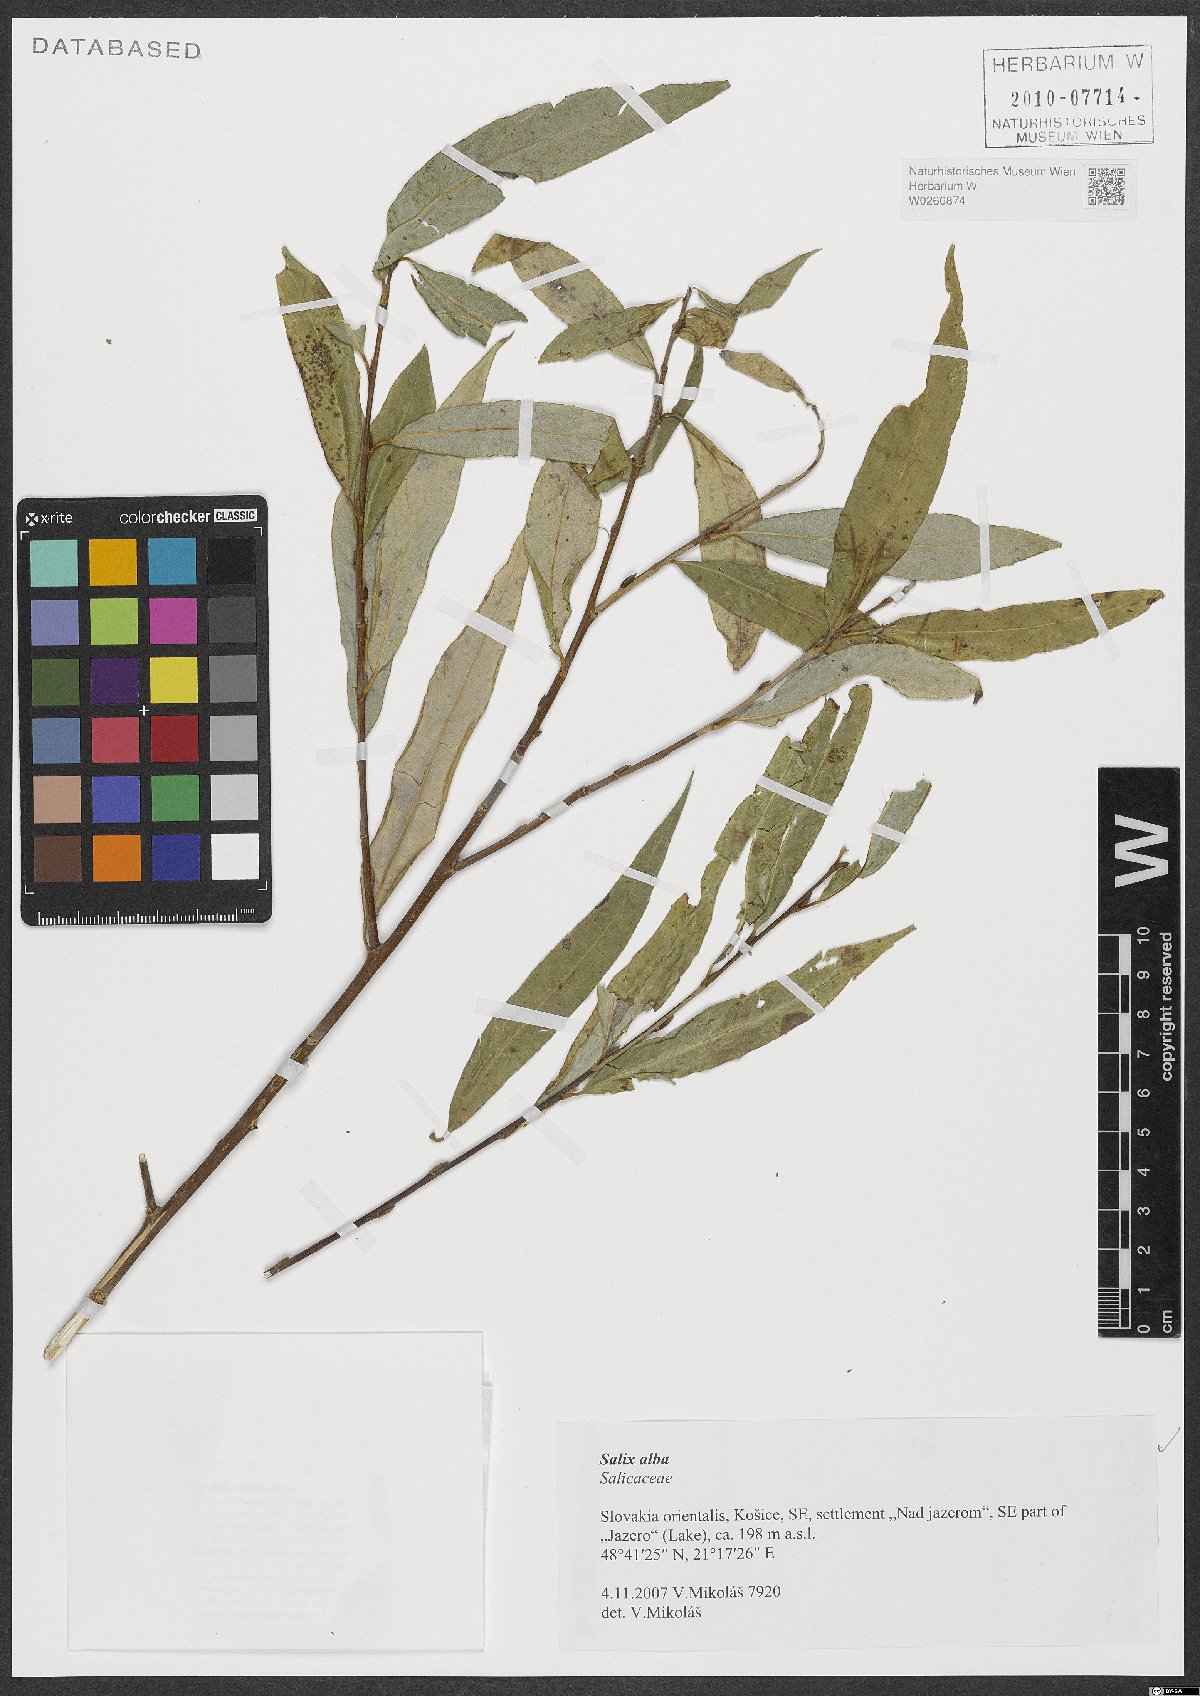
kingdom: Plantae
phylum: Tracheophyta
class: Magnoliopsida
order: Malpighiales
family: Salicaceae
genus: Salix
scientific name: Salix alba
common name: White willow
